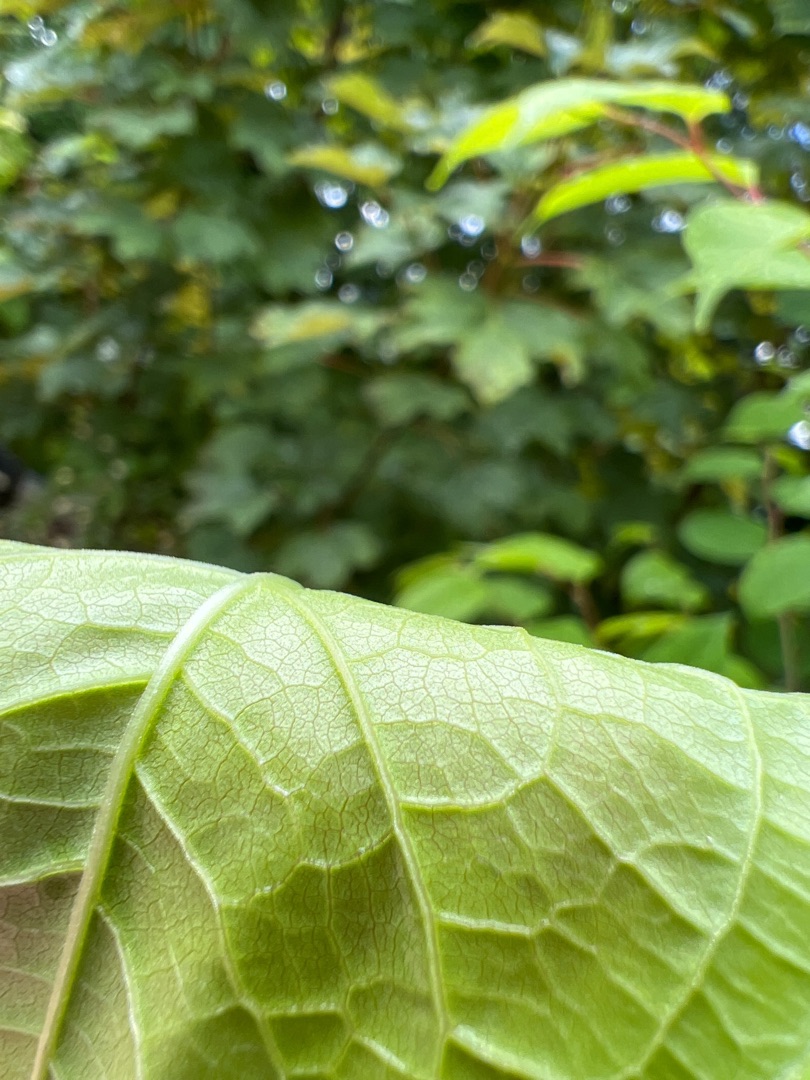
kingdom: Plantae
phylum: Tracheophyta
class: Magnoliopsida
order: Caryophyllales
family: Polygonaceae
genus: Reynoutria
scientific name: Reynoutria japonica
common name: Japan-pileurt
